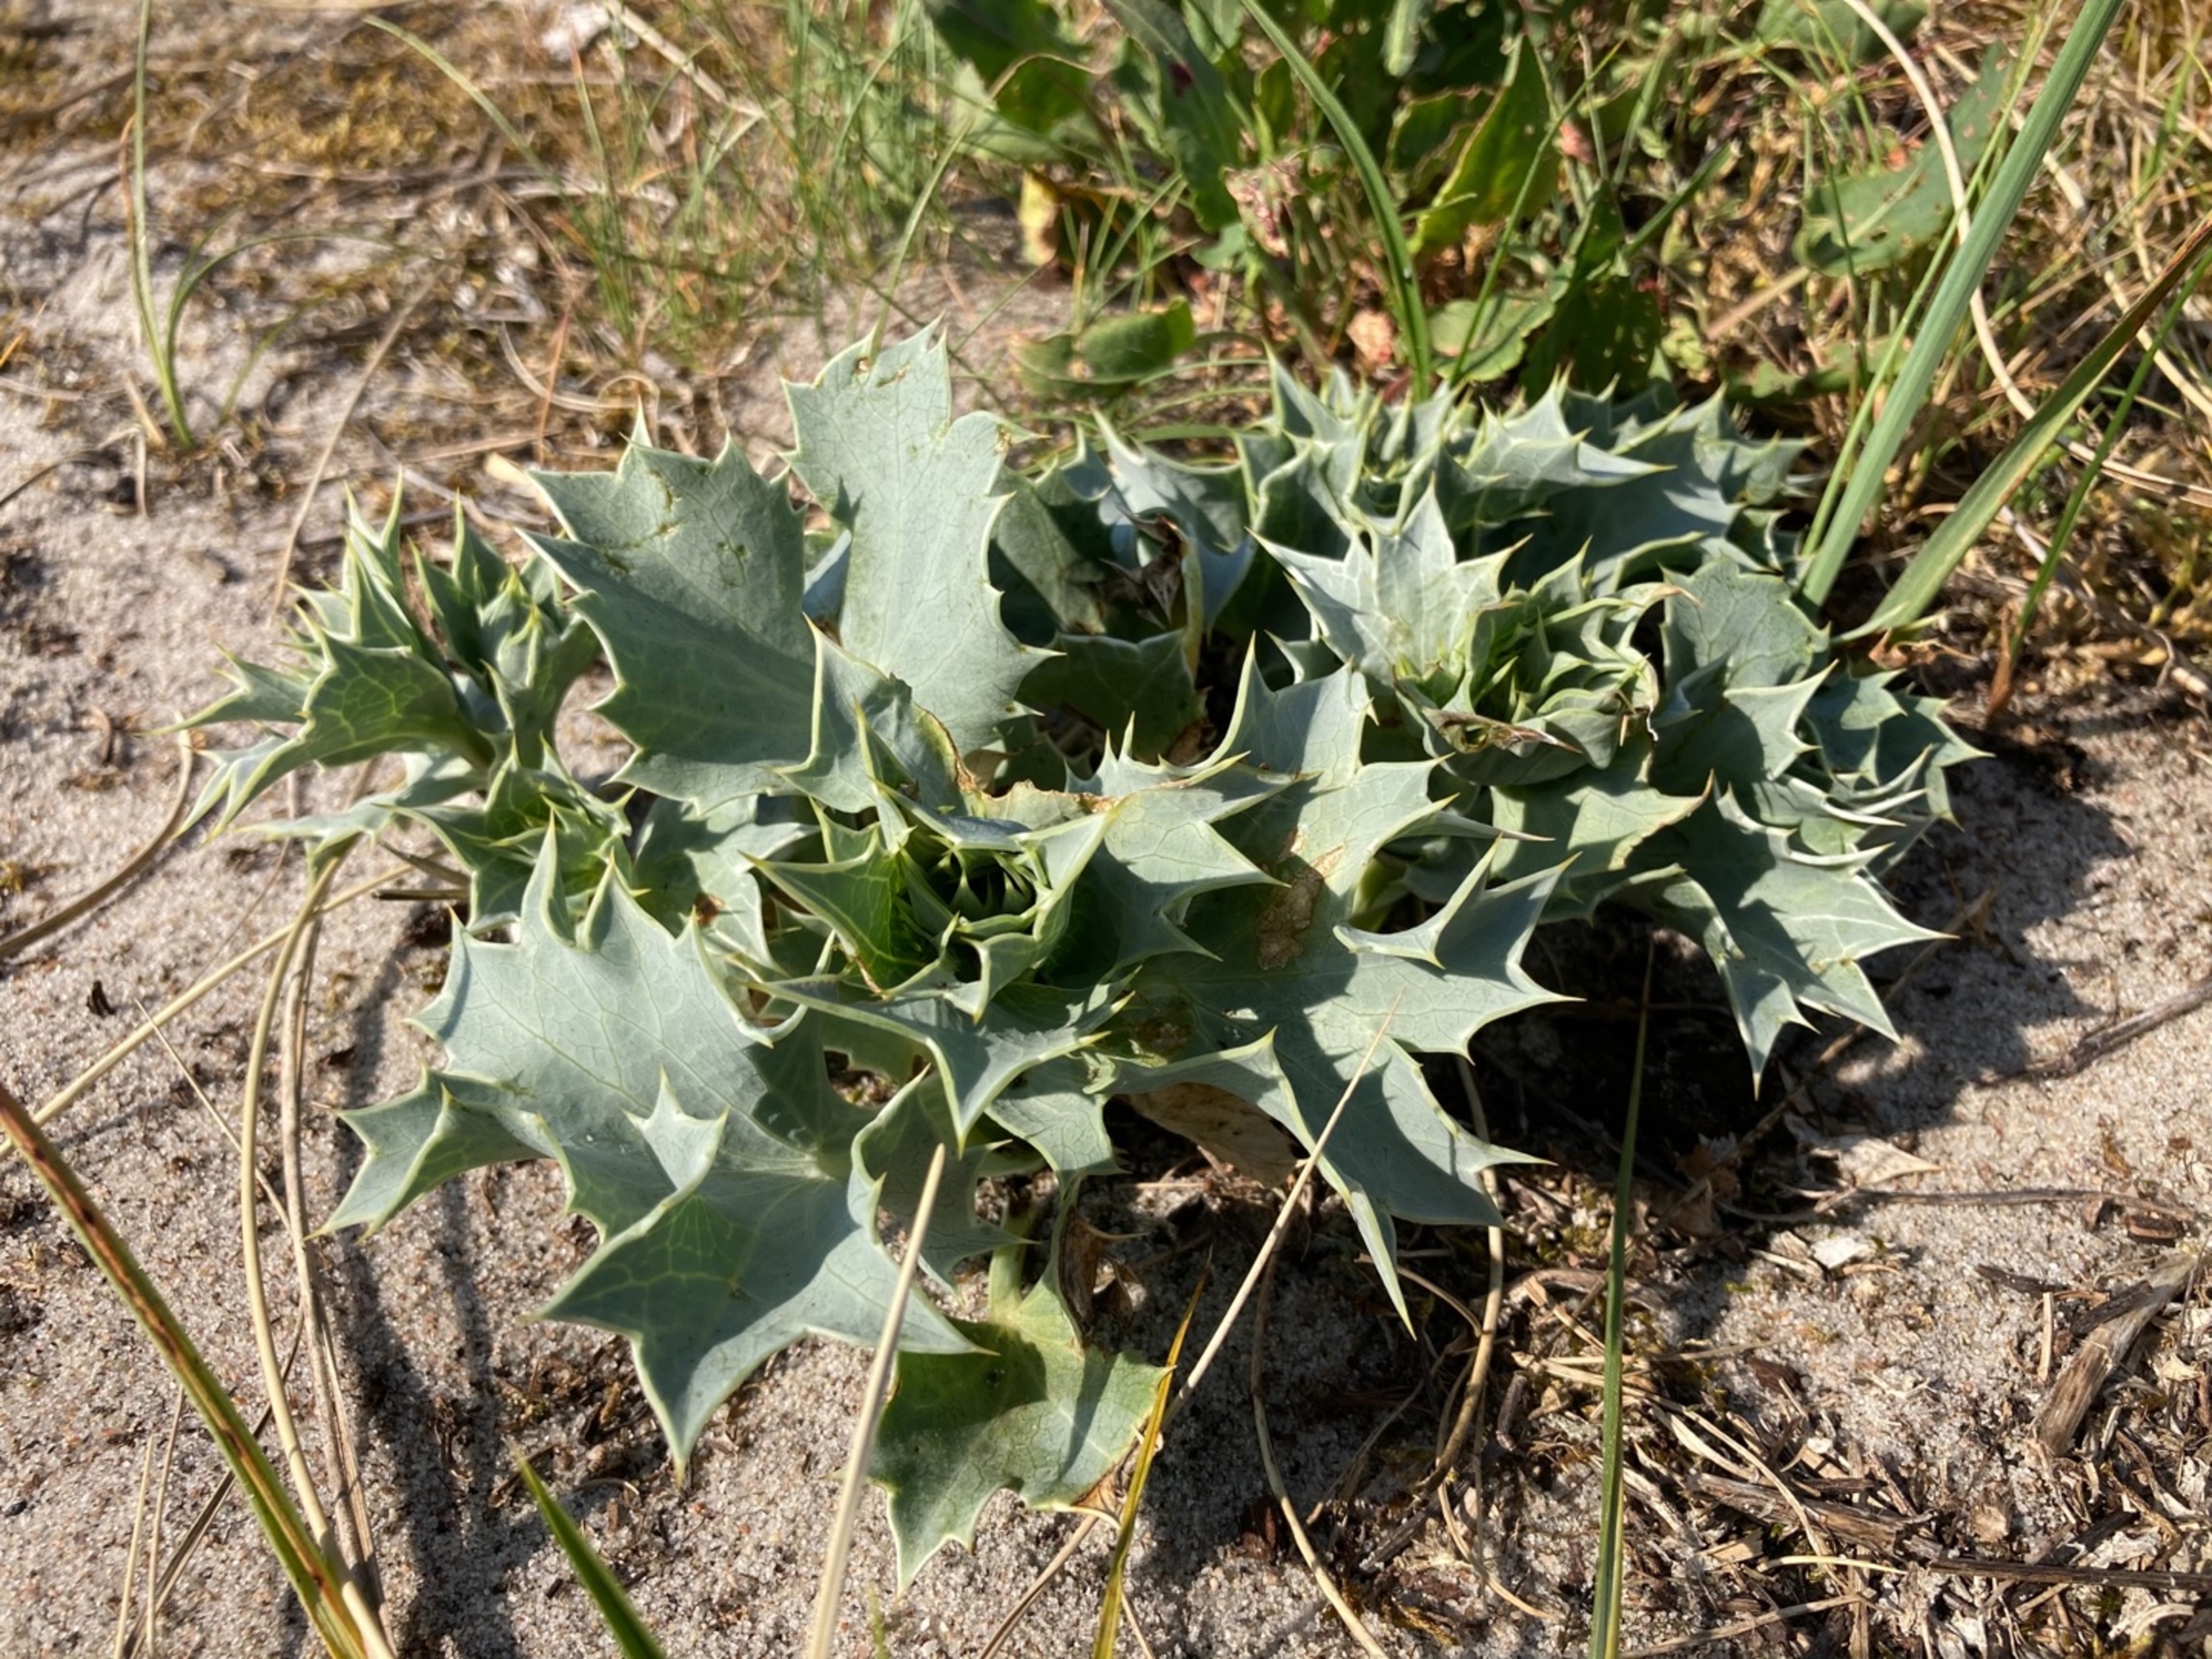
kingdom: Plantae
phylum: Tracheophyta
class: Magnoliopsida
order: Apiales
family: Apiaceae
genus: Eryngium
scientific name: Eryngium maritimum
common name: Strand-mandstro
